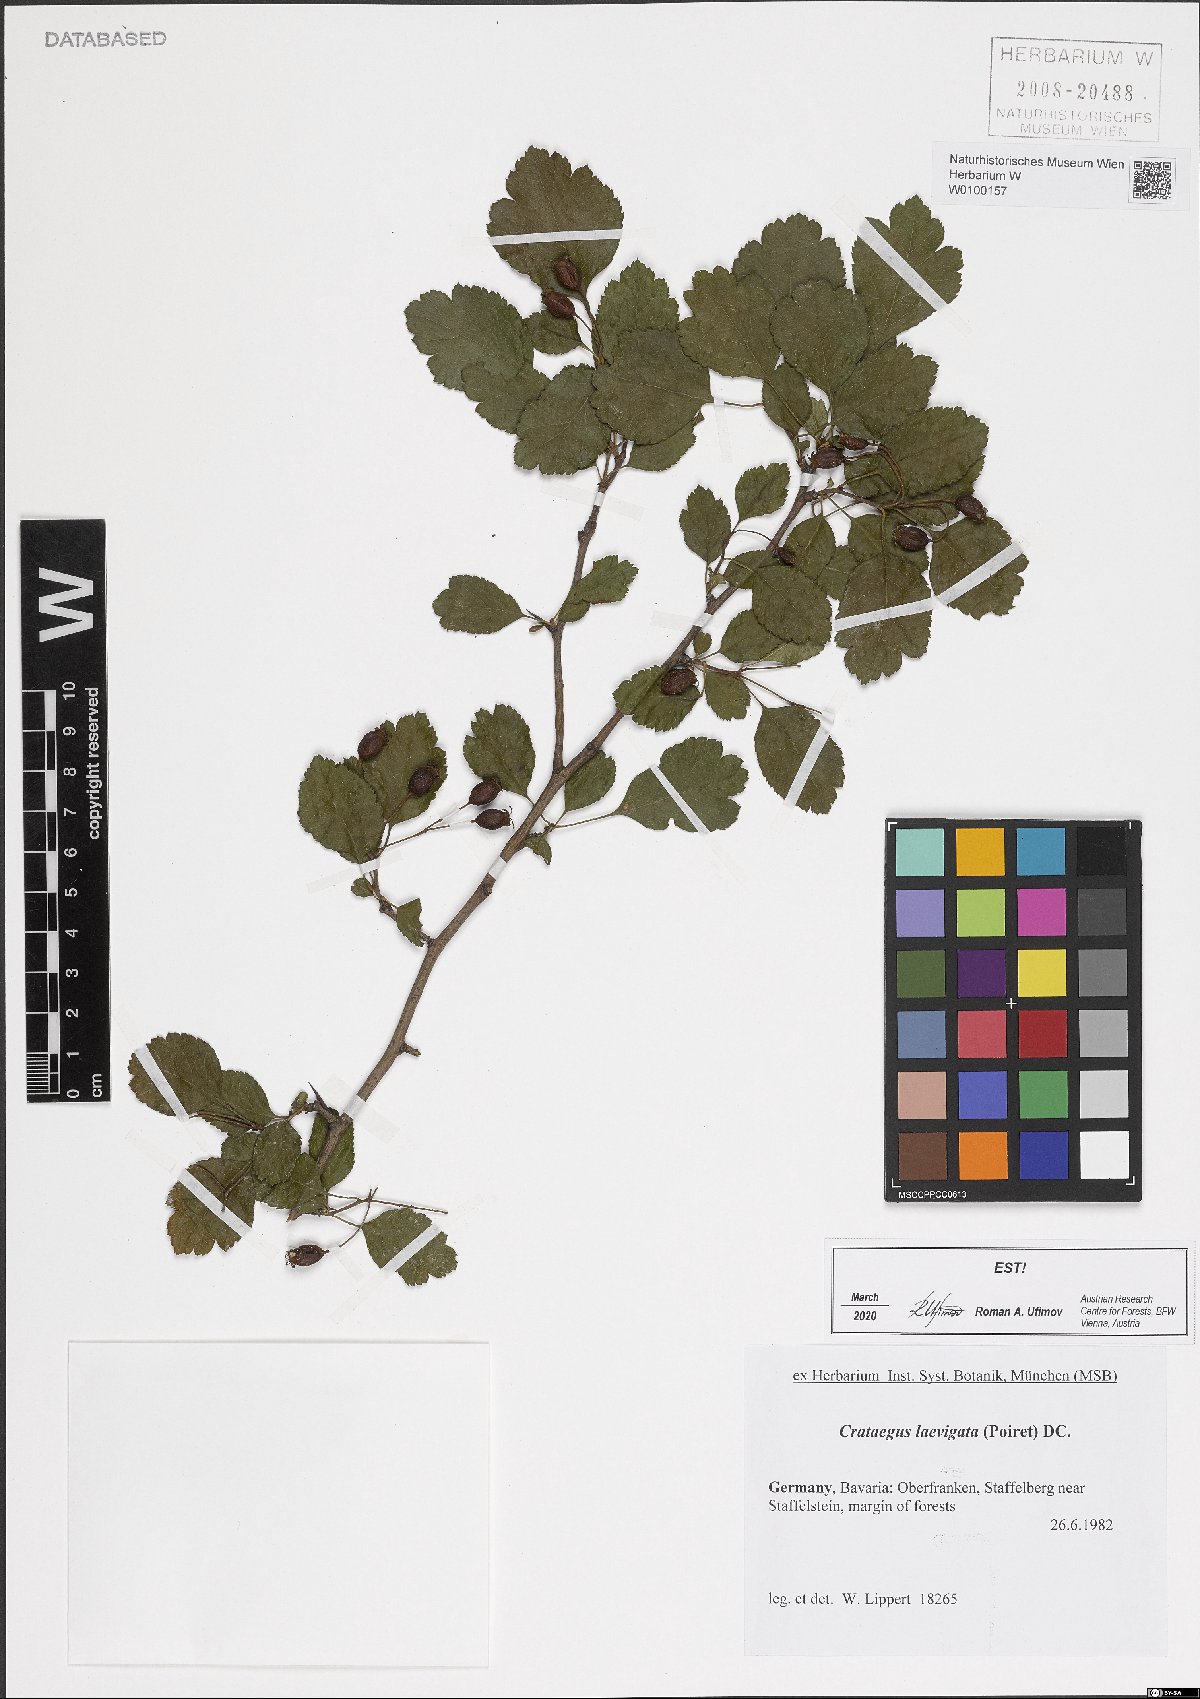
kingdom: Plantae
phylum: Tracheophyta
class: Magnoliopsida
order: Rosales
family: Rosaceae
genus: Crataegus
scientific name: Crataegus laevigata
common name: Midland hawthorn
